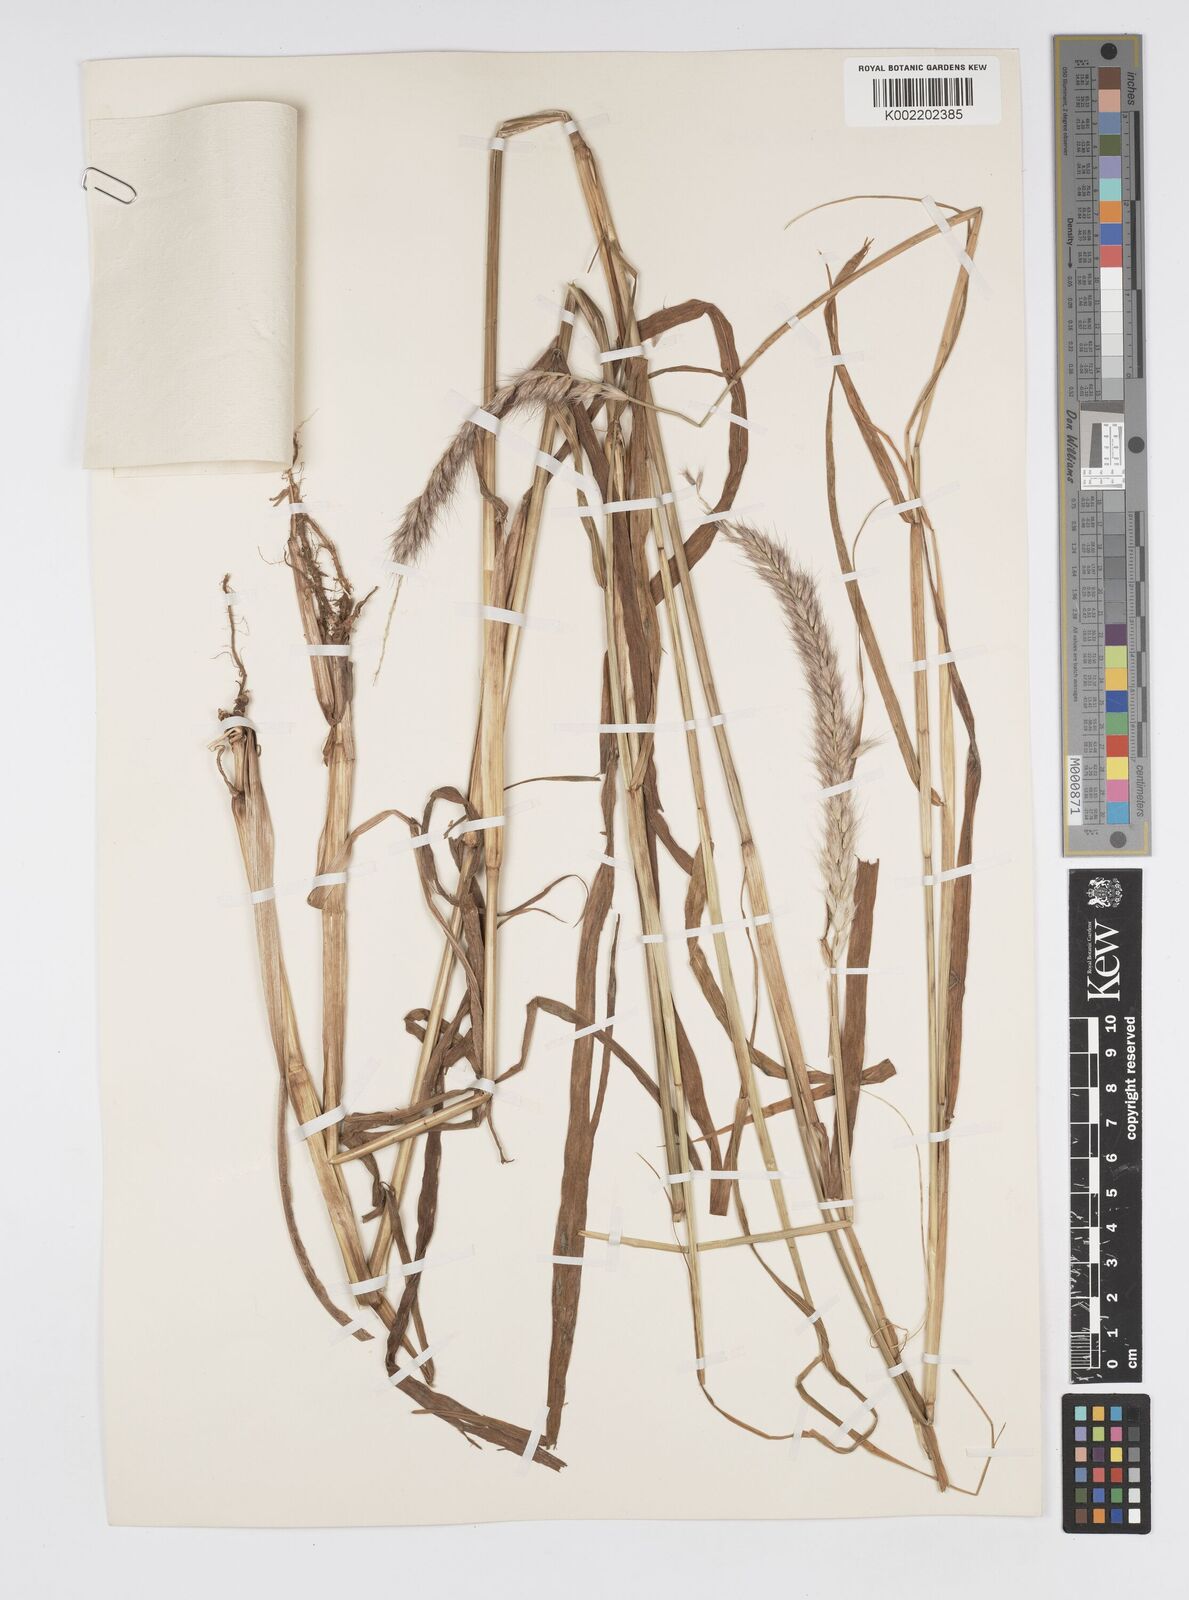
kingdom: Plantae
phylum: Tracheophyta
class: Liliopsida
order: Poales
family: Poaceae
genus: Cenchrus
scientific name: Cenchrus pedicellatus
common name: Hairy fountain grass
